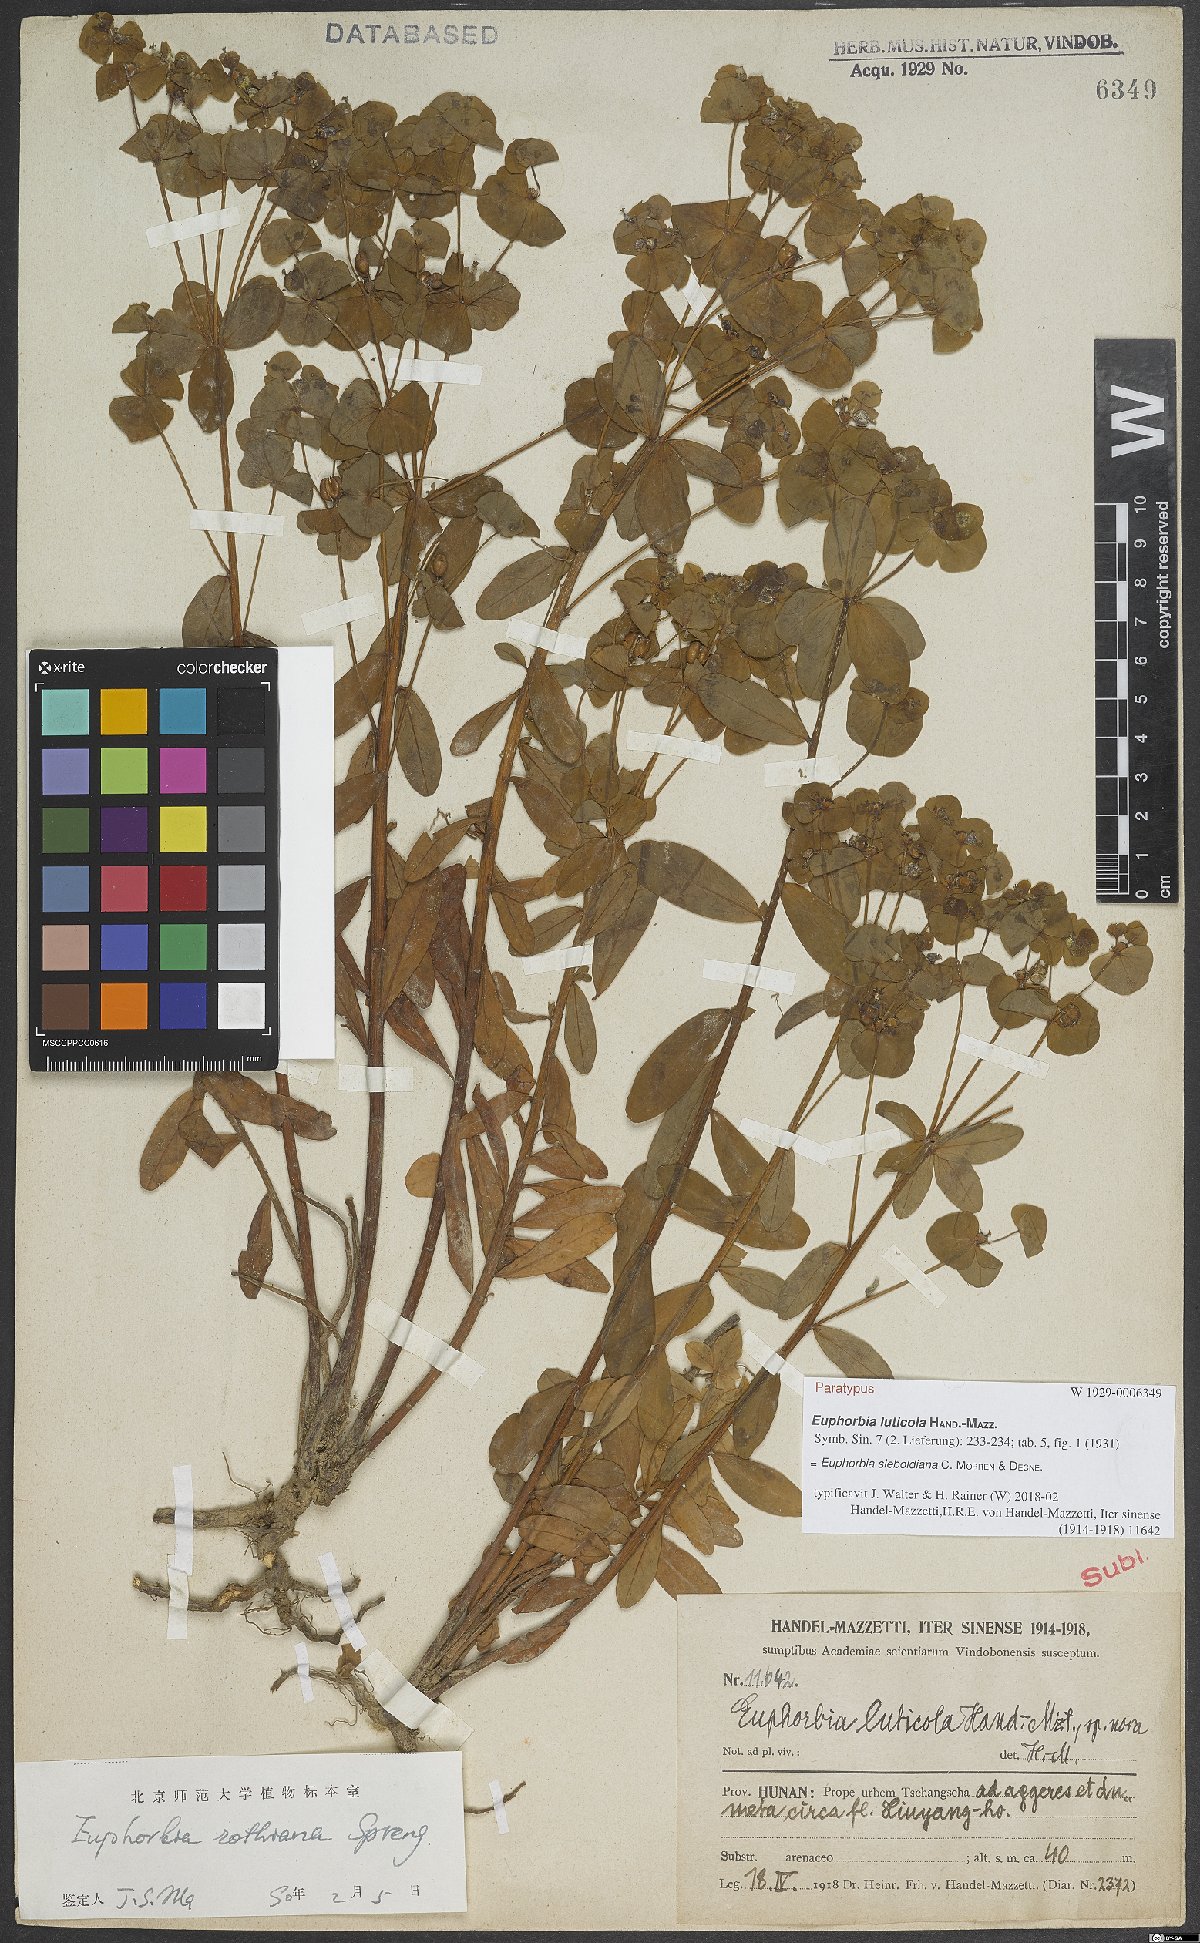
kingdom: Plantae
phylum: Tracheophyta
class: Magnoliopsida
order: Malpighiales
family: Euphorbiaceae
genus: Euphorbia
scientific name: Euphorbia sieboldiana
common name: Siebold's spurge
